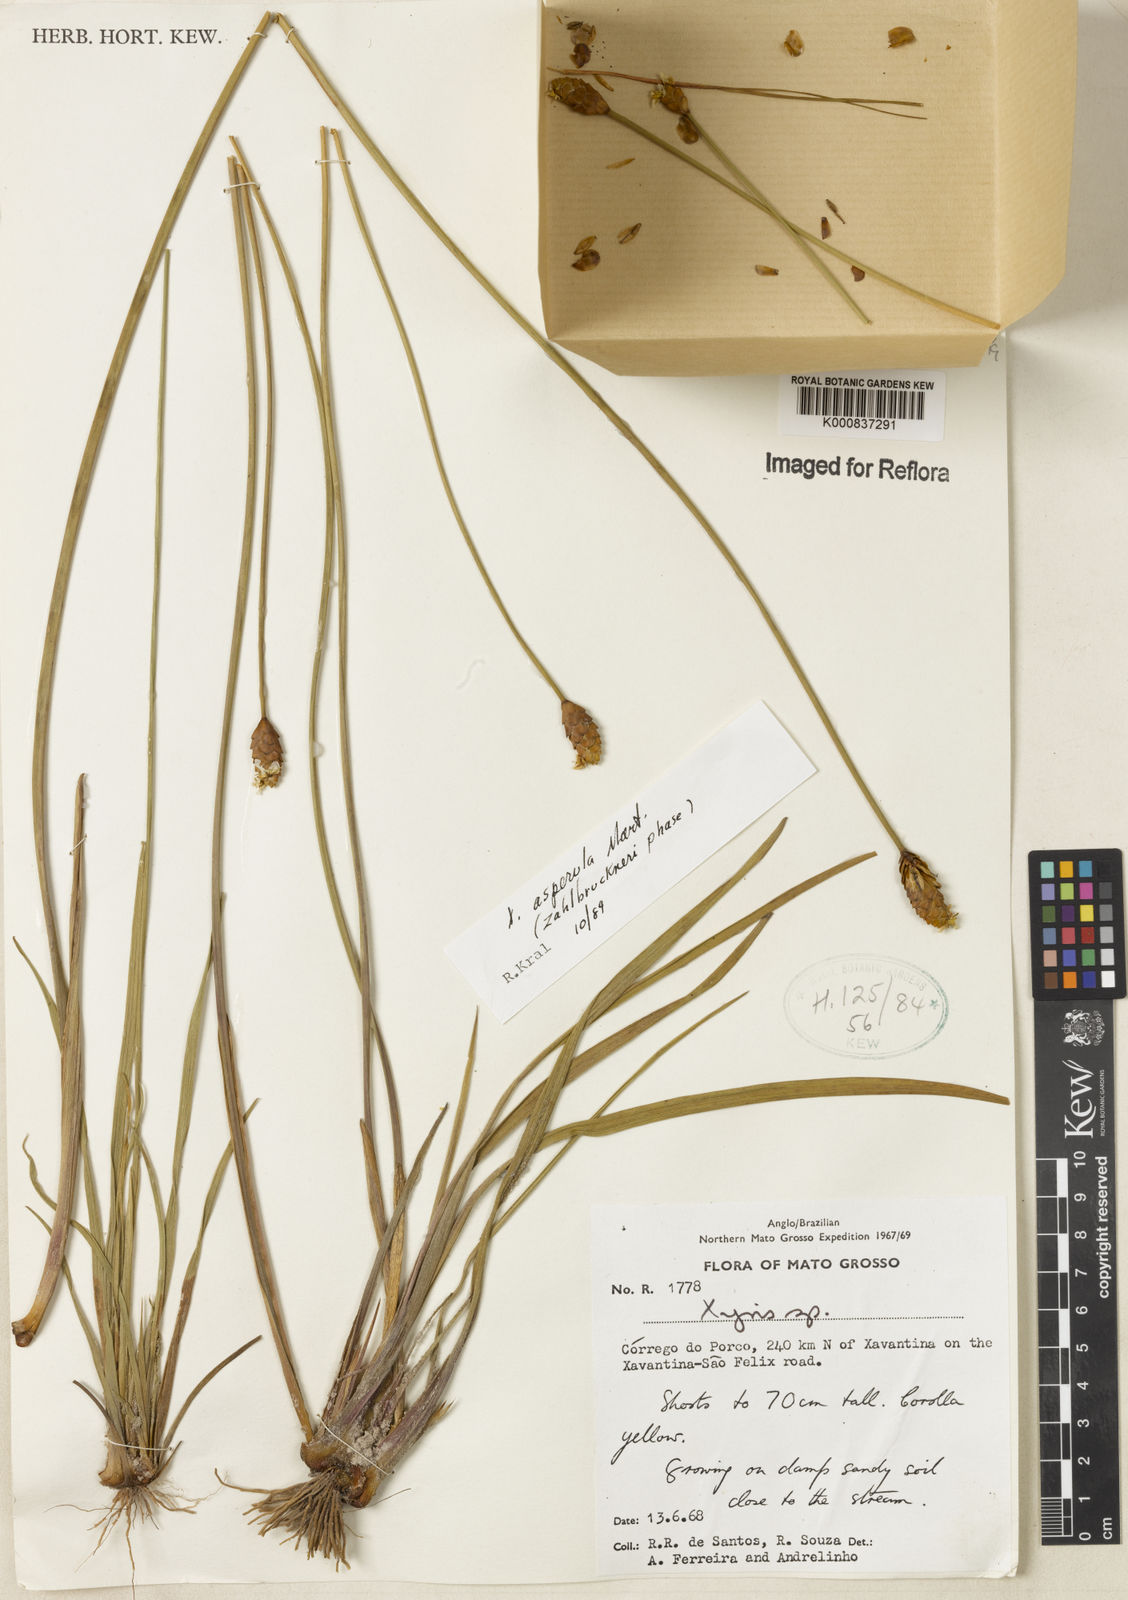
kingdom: Plantae
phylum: Tracheophyta
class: Liliopsida
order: Poales
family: Xyridaceae
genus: Xyris
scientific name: Xyris asperula
